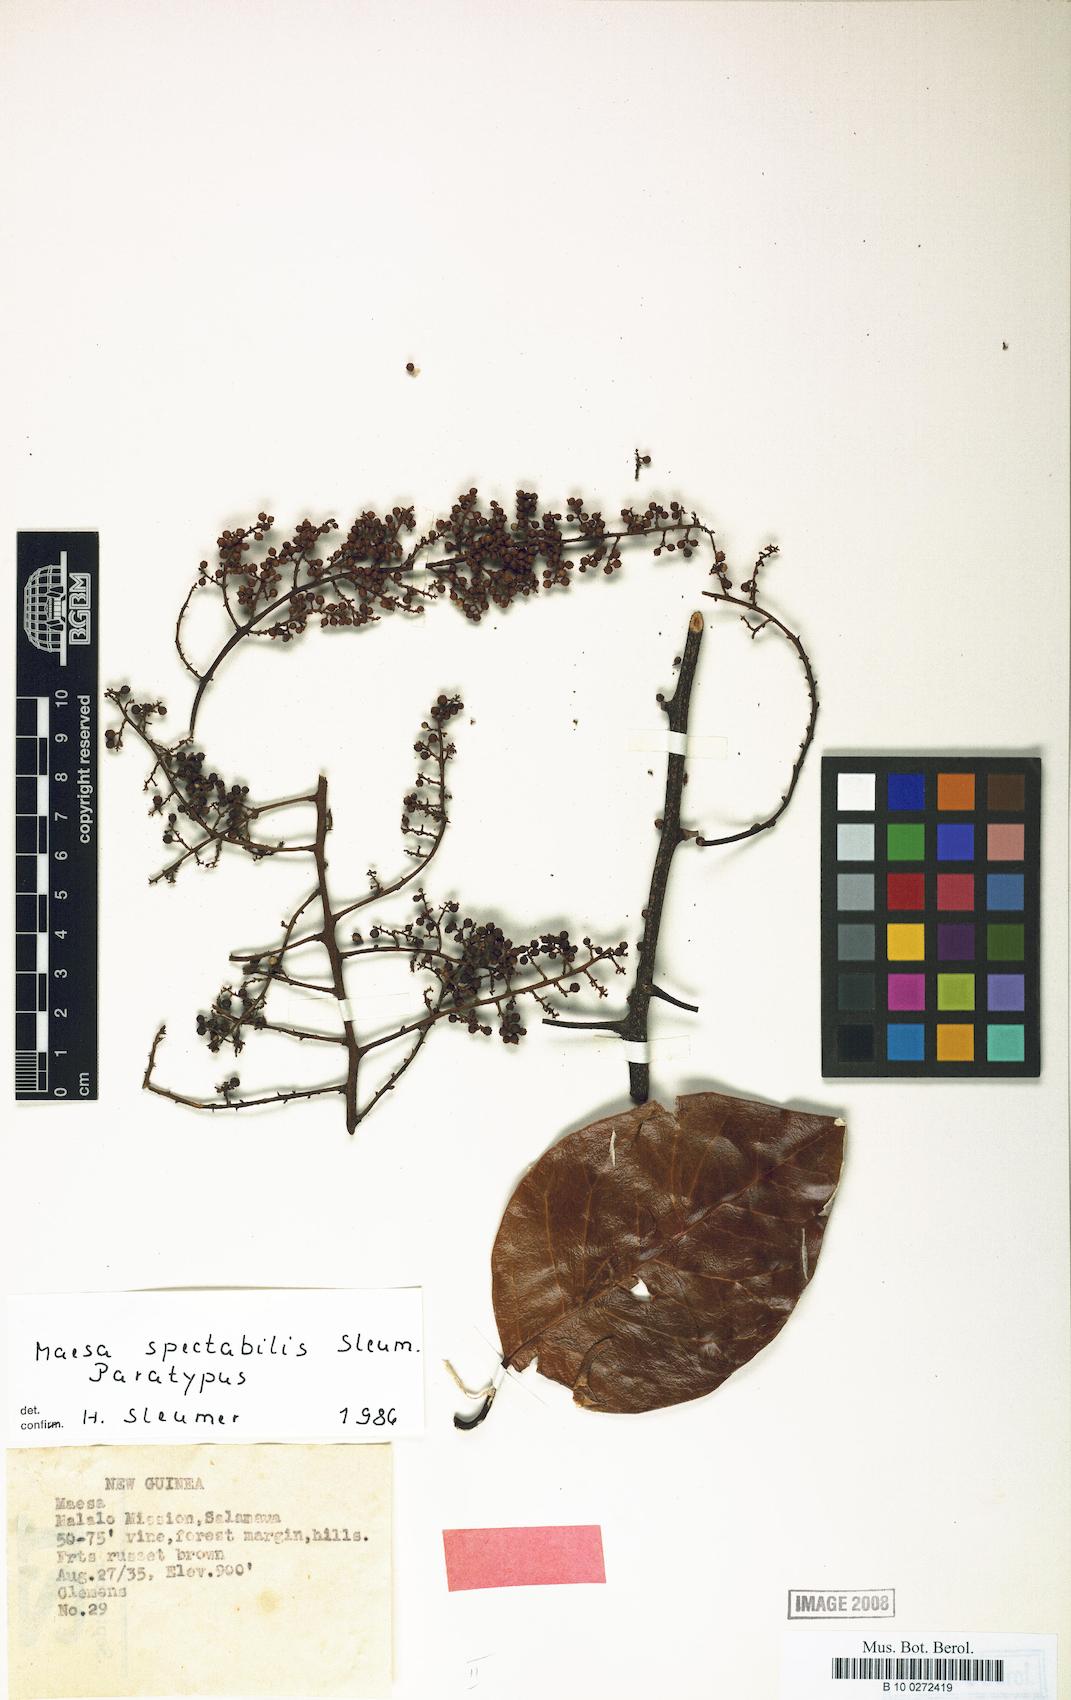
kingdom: Plantae
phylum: Tracheophyta
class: Magnoliopsida
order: Ericales
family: Primulaceae
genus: Maesa
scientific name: Maesa spectabilis
